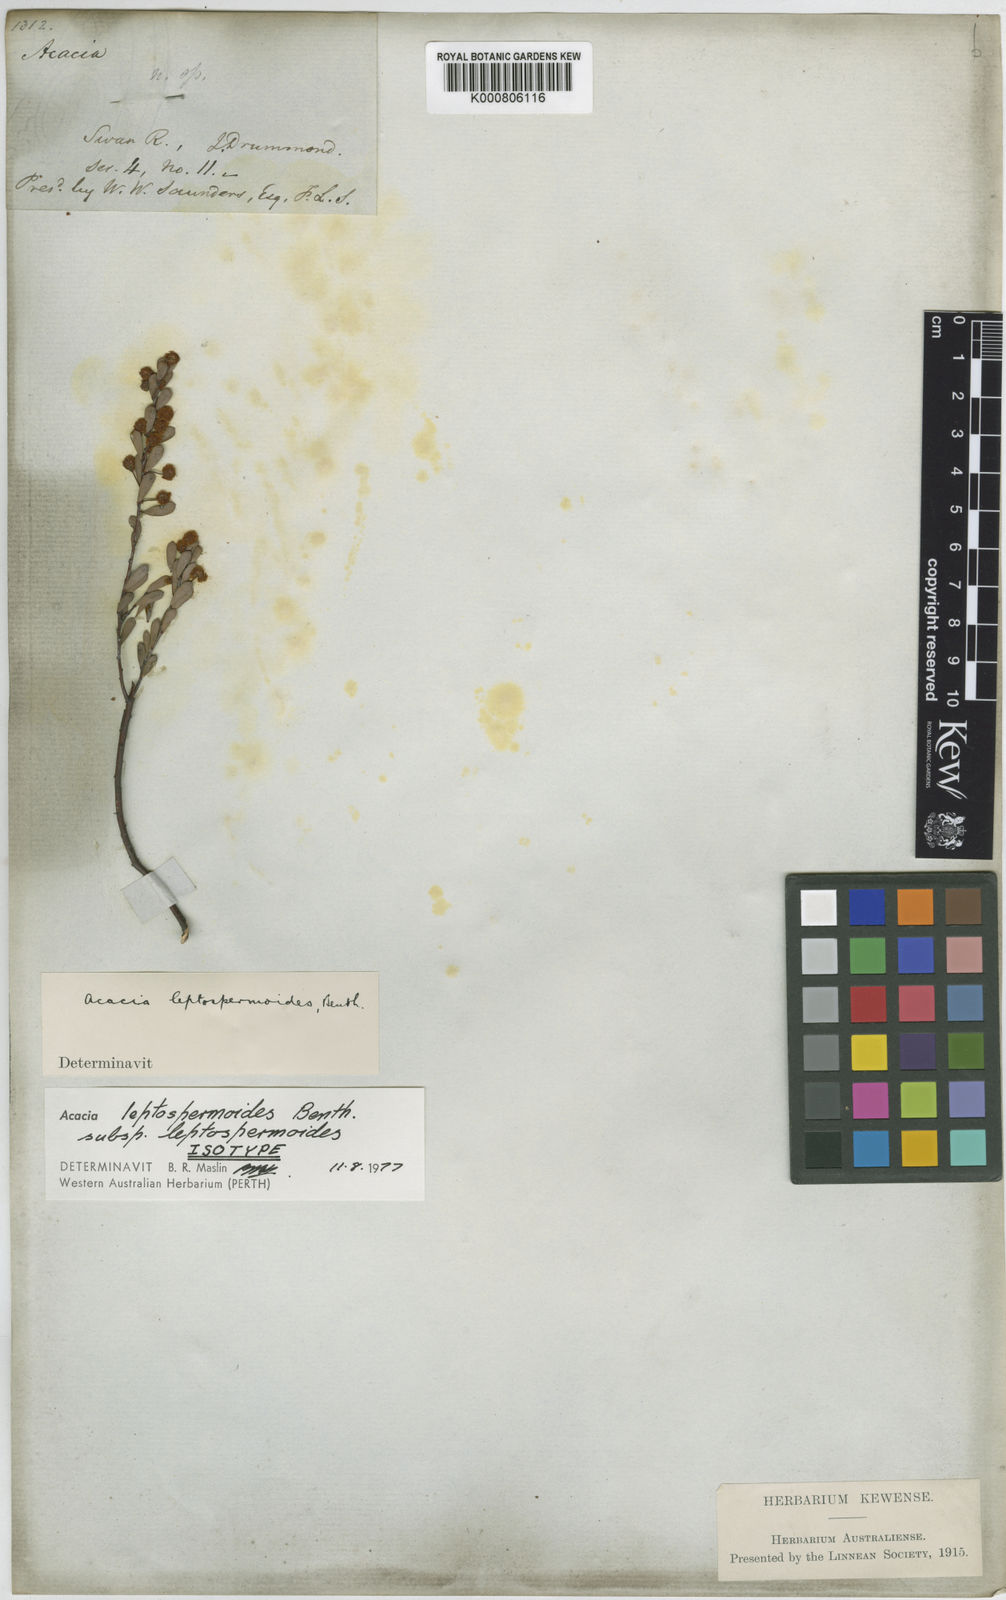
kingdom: Plantae
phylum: Tracheophyta
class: Magnoliopsida
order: Fabales
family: Fabaceae
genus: Acacia
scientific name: Acacia leptospermoides
